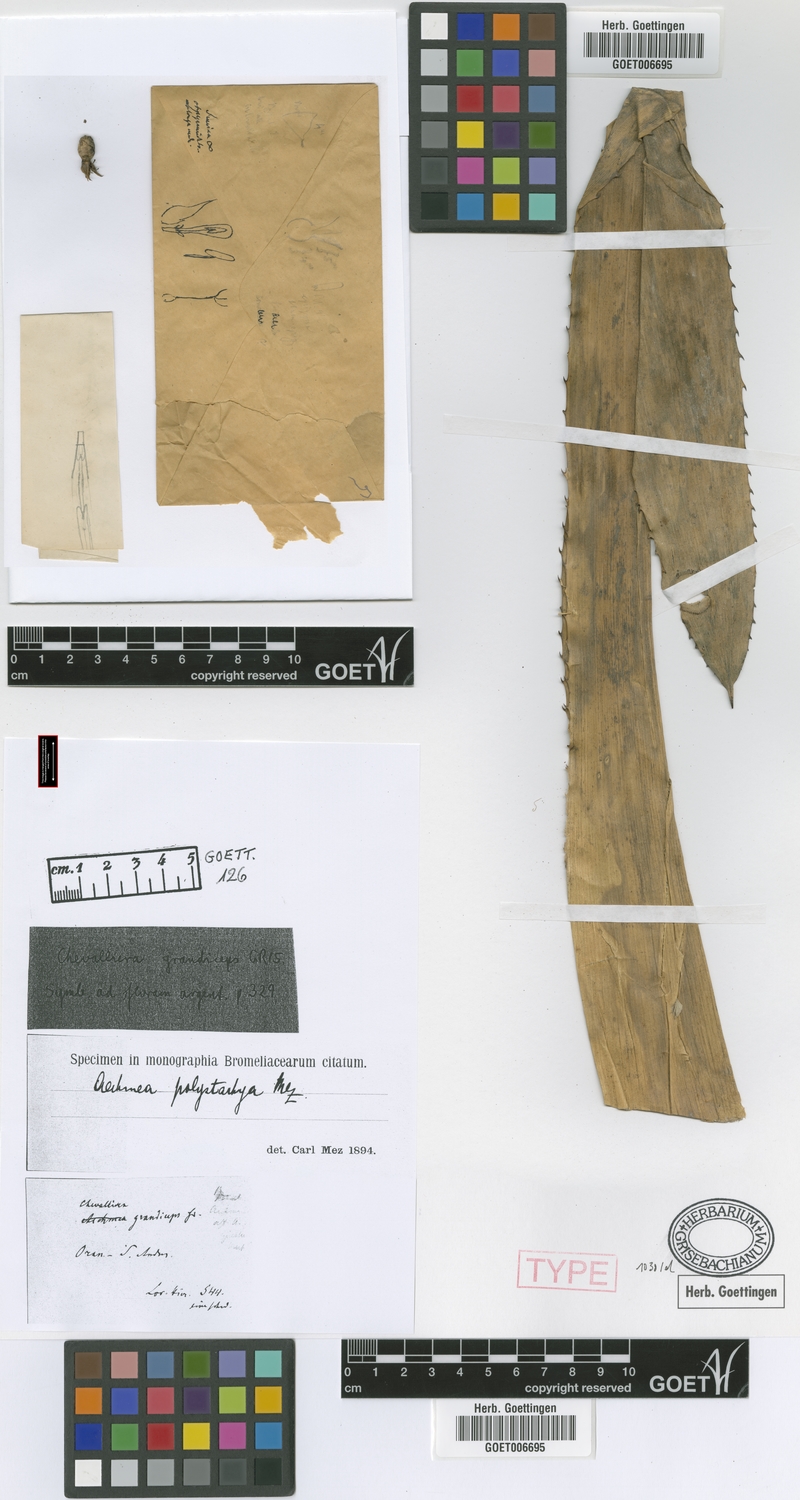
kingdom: Plantae
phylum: Tracheophyta
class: Liliopsida
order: Poales
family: Bromeliaceae
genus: Aechmea
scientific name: Aechmea distichantha
